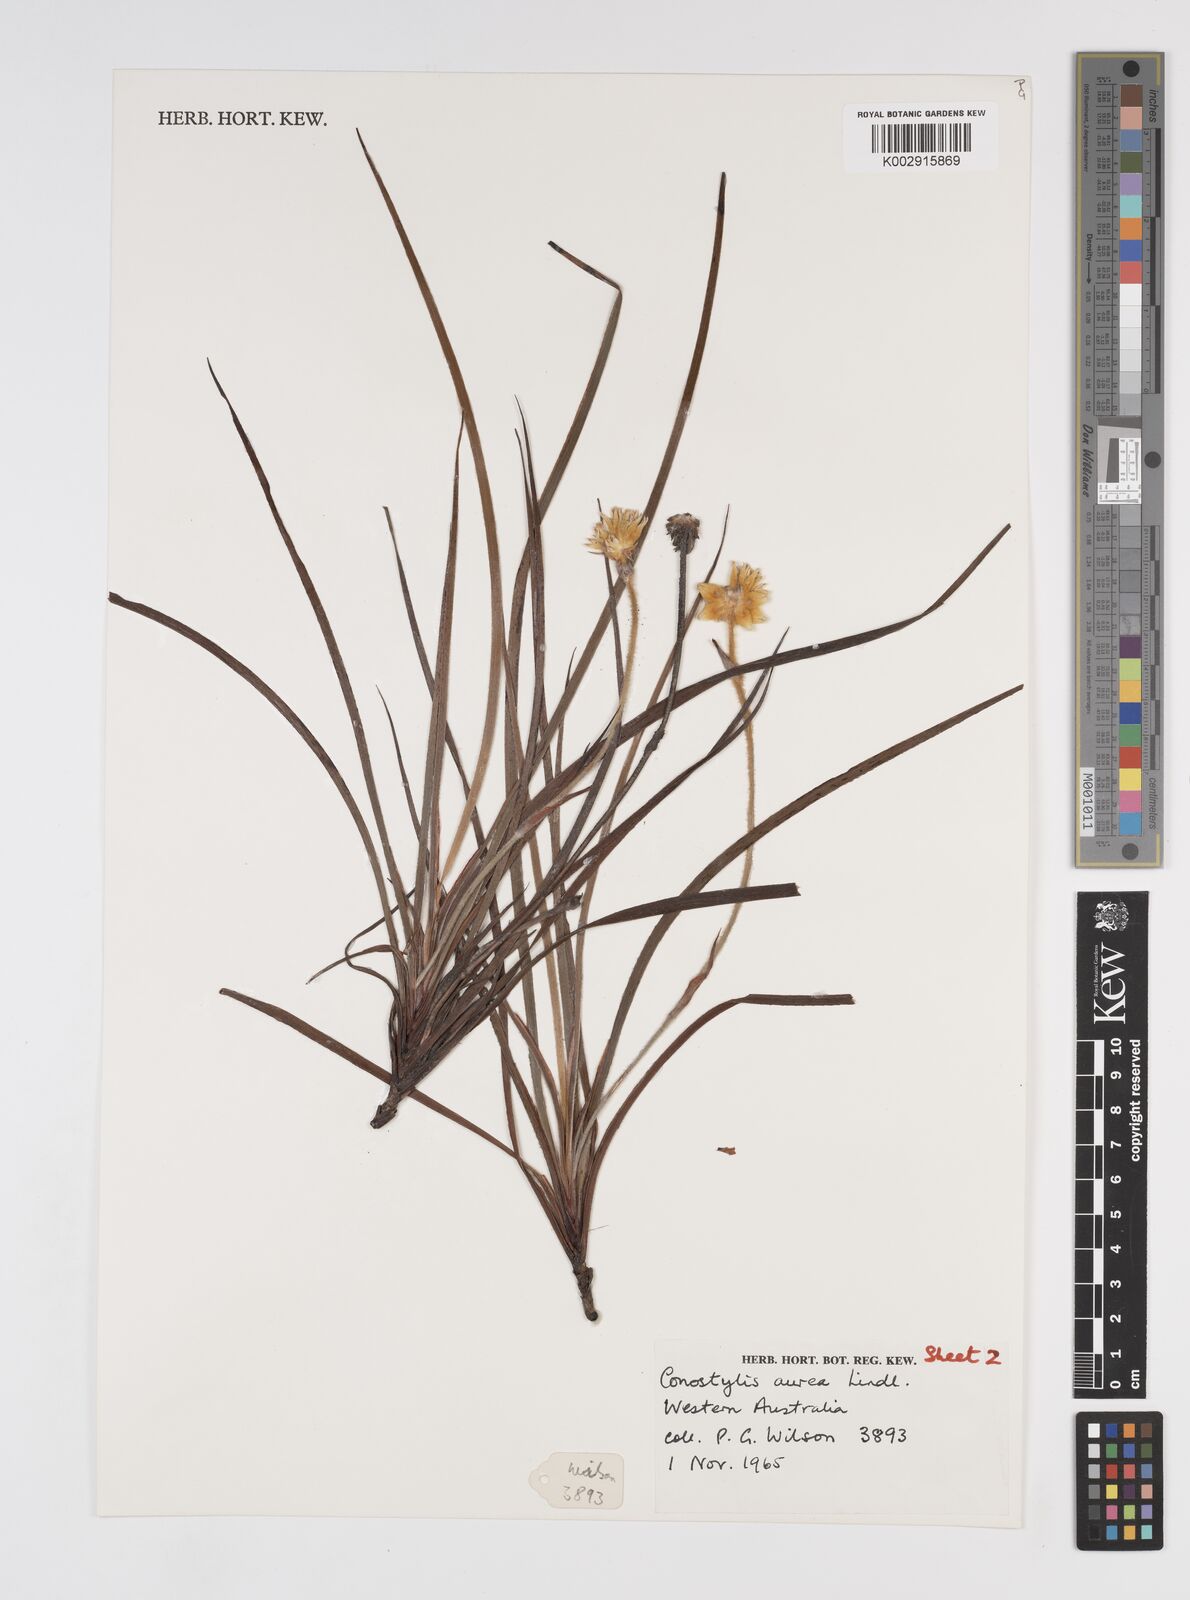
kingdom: Plantae
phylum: Tracheophyta
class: Liliopsida
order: Commelinales
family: Haemodoraceae
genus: Conostylis
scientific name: Conostylis aurea
